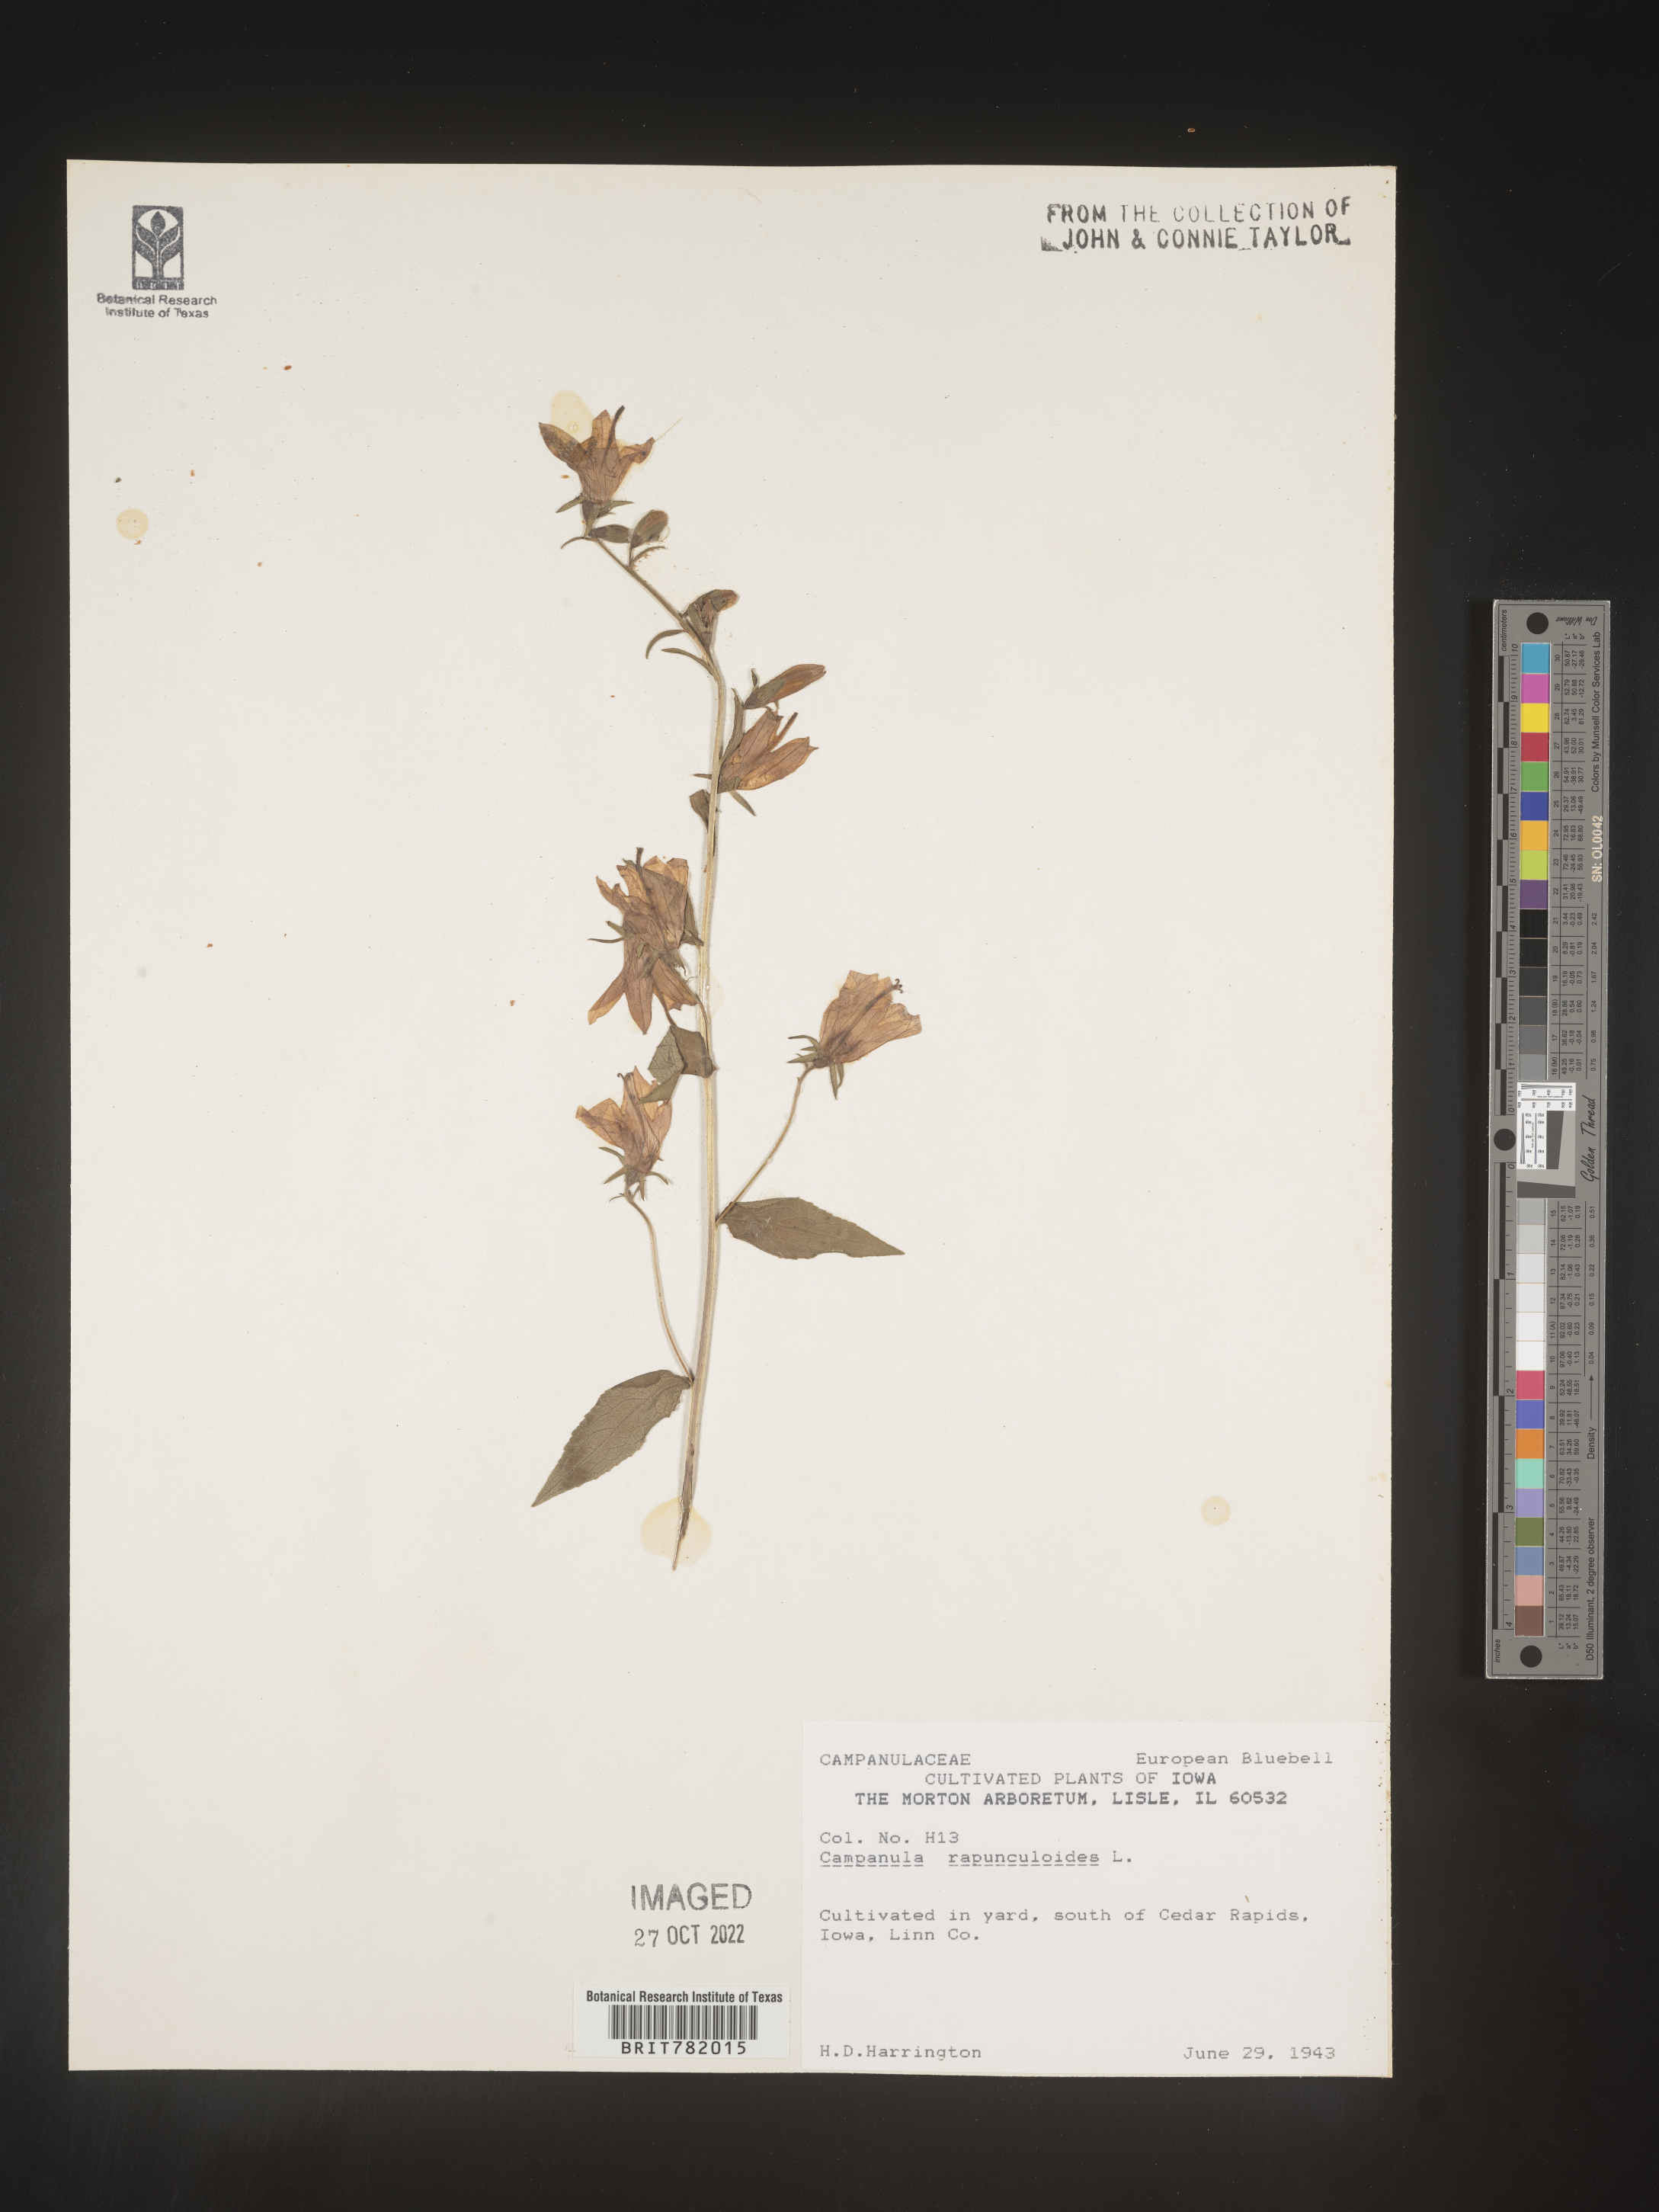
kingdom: Plantae
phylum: Tracheophyta
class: Magnoliopsida
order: Asterales
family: Campanulaceae
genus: Campanula
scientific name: Campanula
